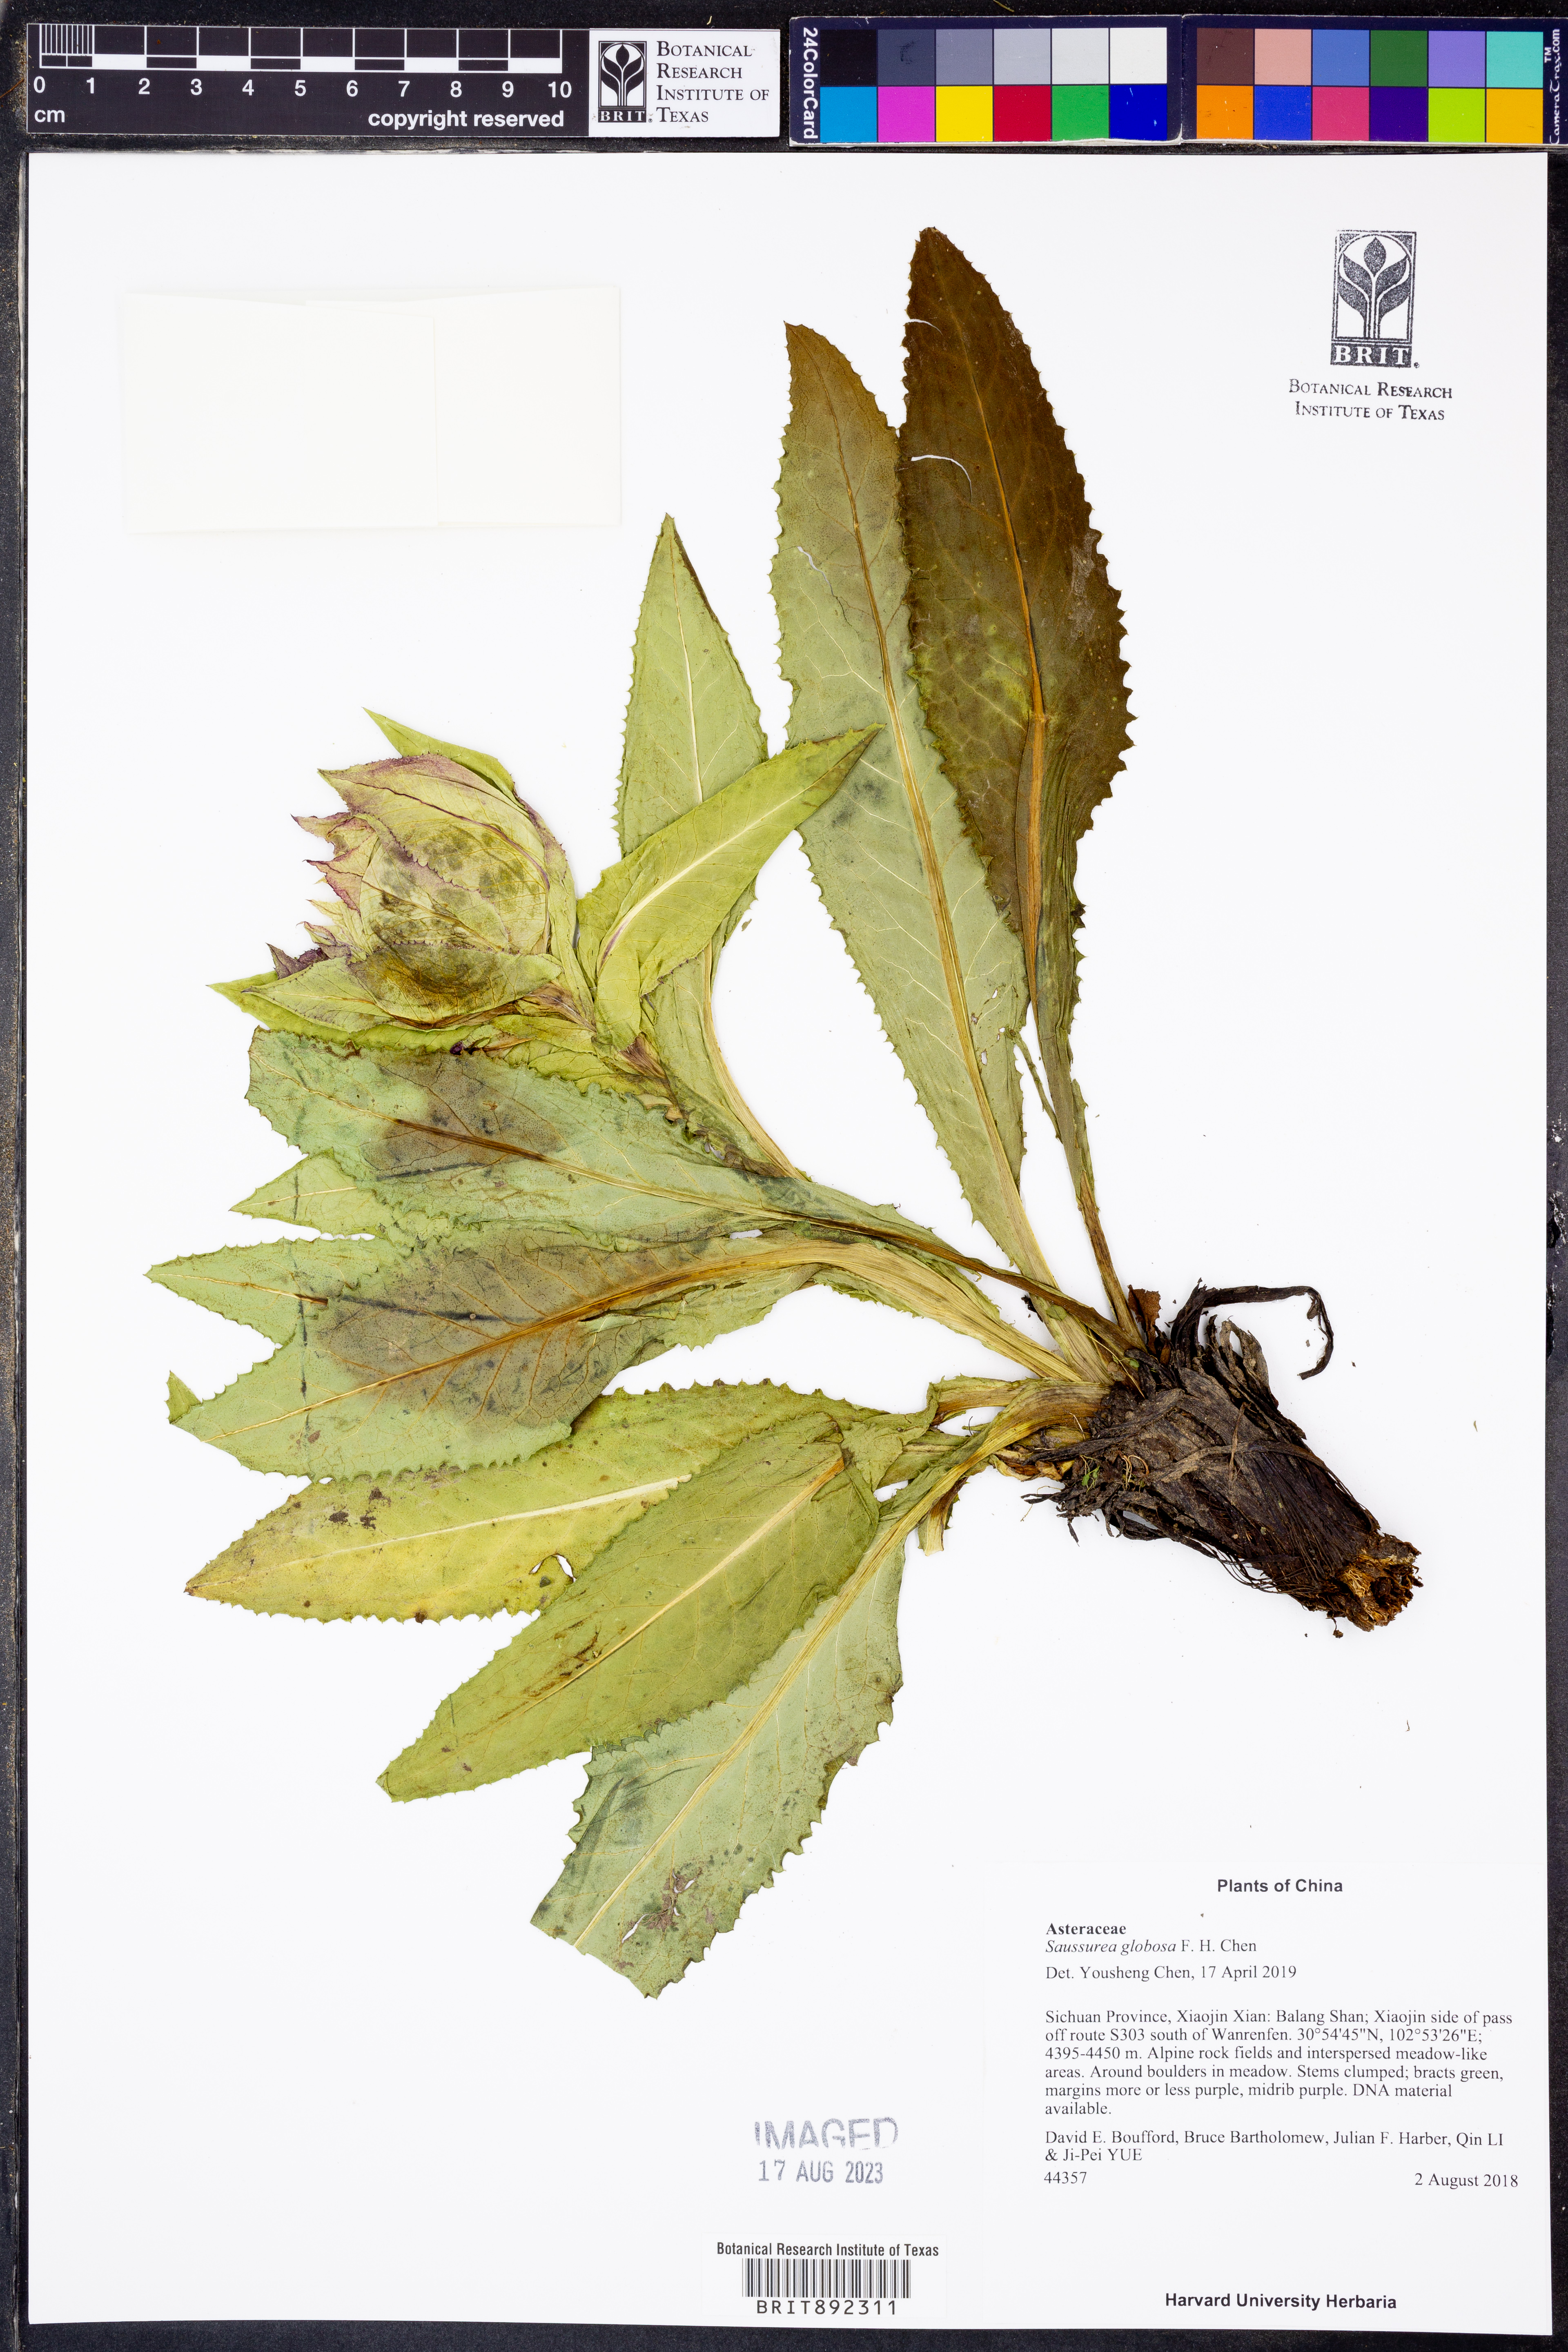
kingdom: Plantae
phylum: Tracheophyta
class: Magnoliopsida
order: Asterales
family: Asteraceae
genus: Saussurea
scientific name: Saussurea globosa
